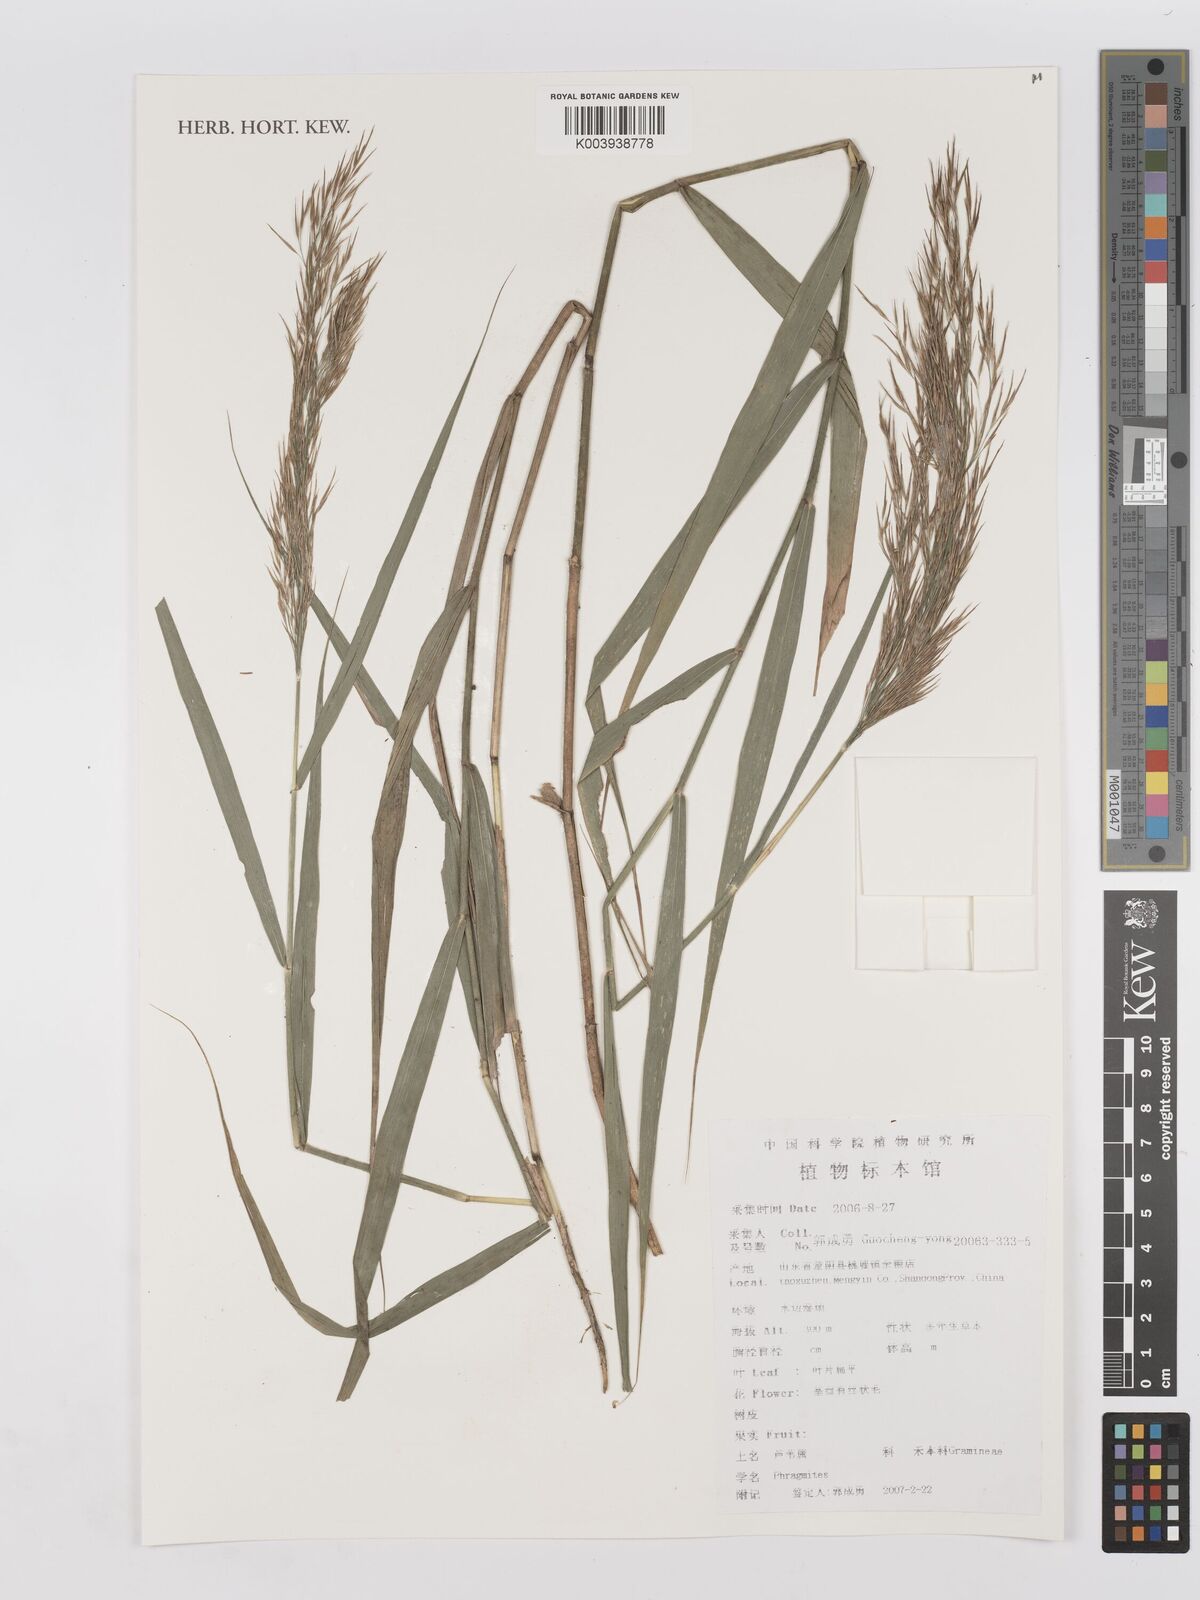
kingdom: Plantae
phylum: Tracheophyta
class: Liliopsida
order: Poales
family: Poaceae
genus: Phragmites
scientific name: Phragmites
